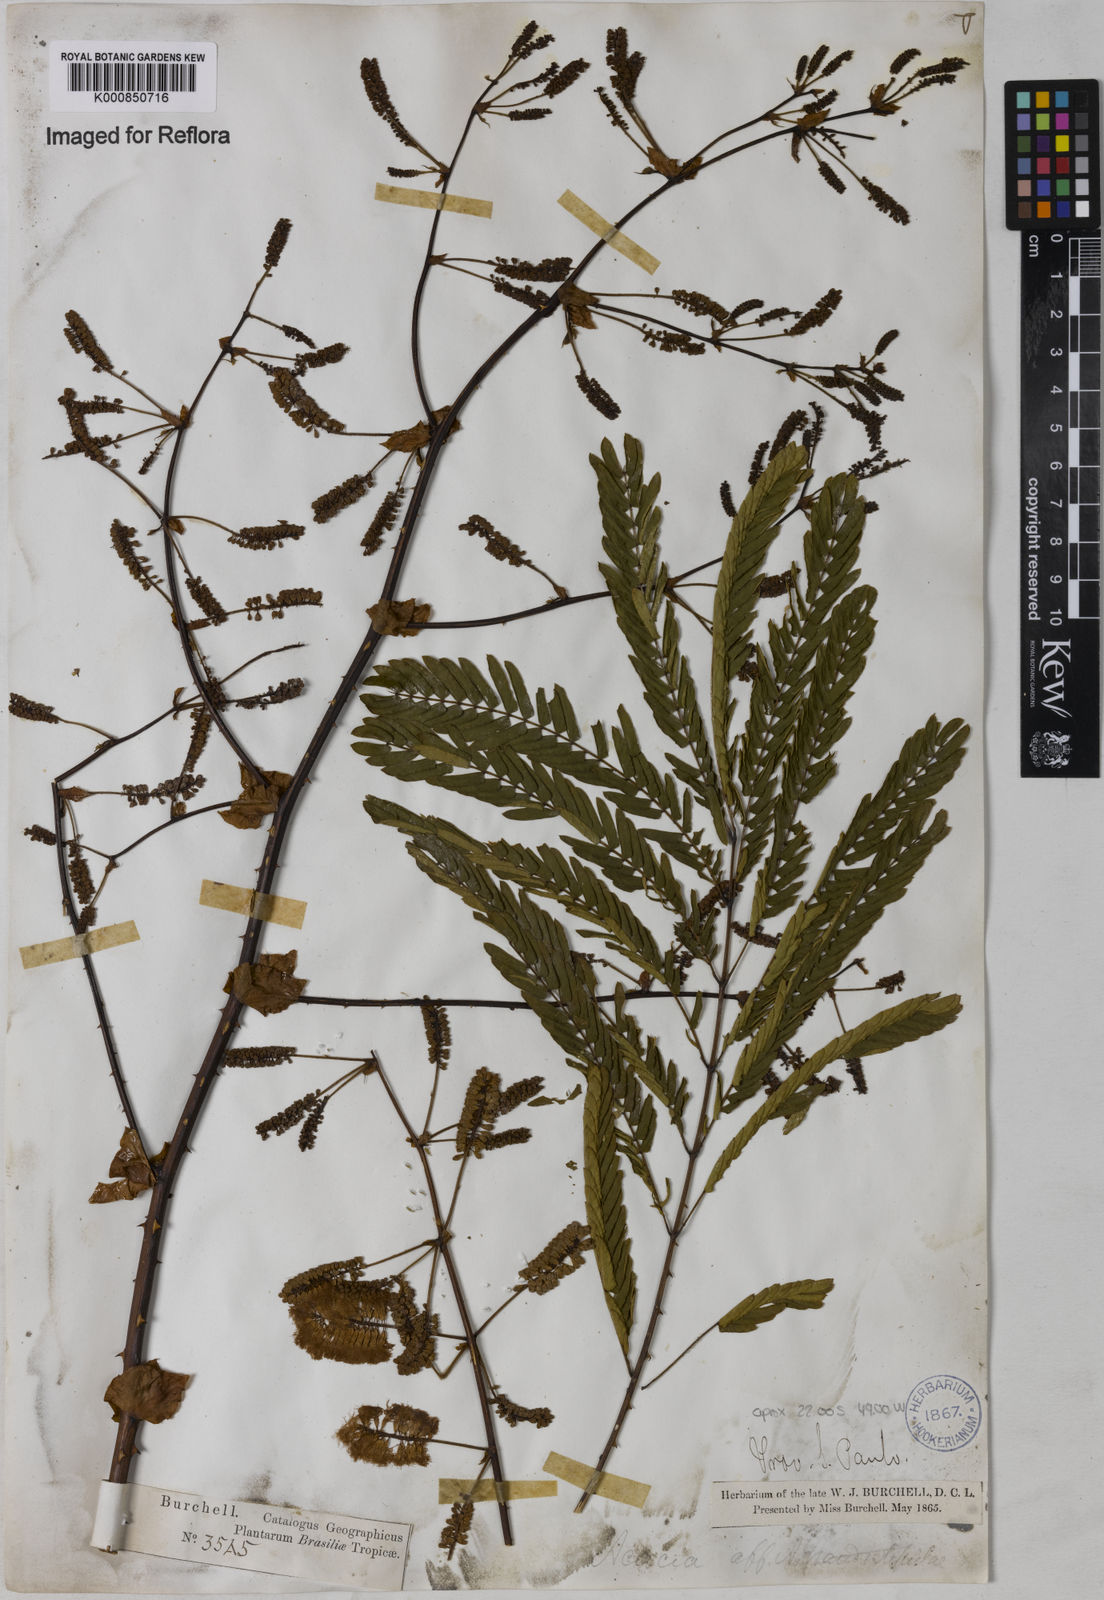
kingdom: Plantae
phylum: Tracheophyta
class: Magnoliopsida
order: Fabales
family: Fabaceae
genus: Senegalia
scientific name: Senegalia grandistipula
